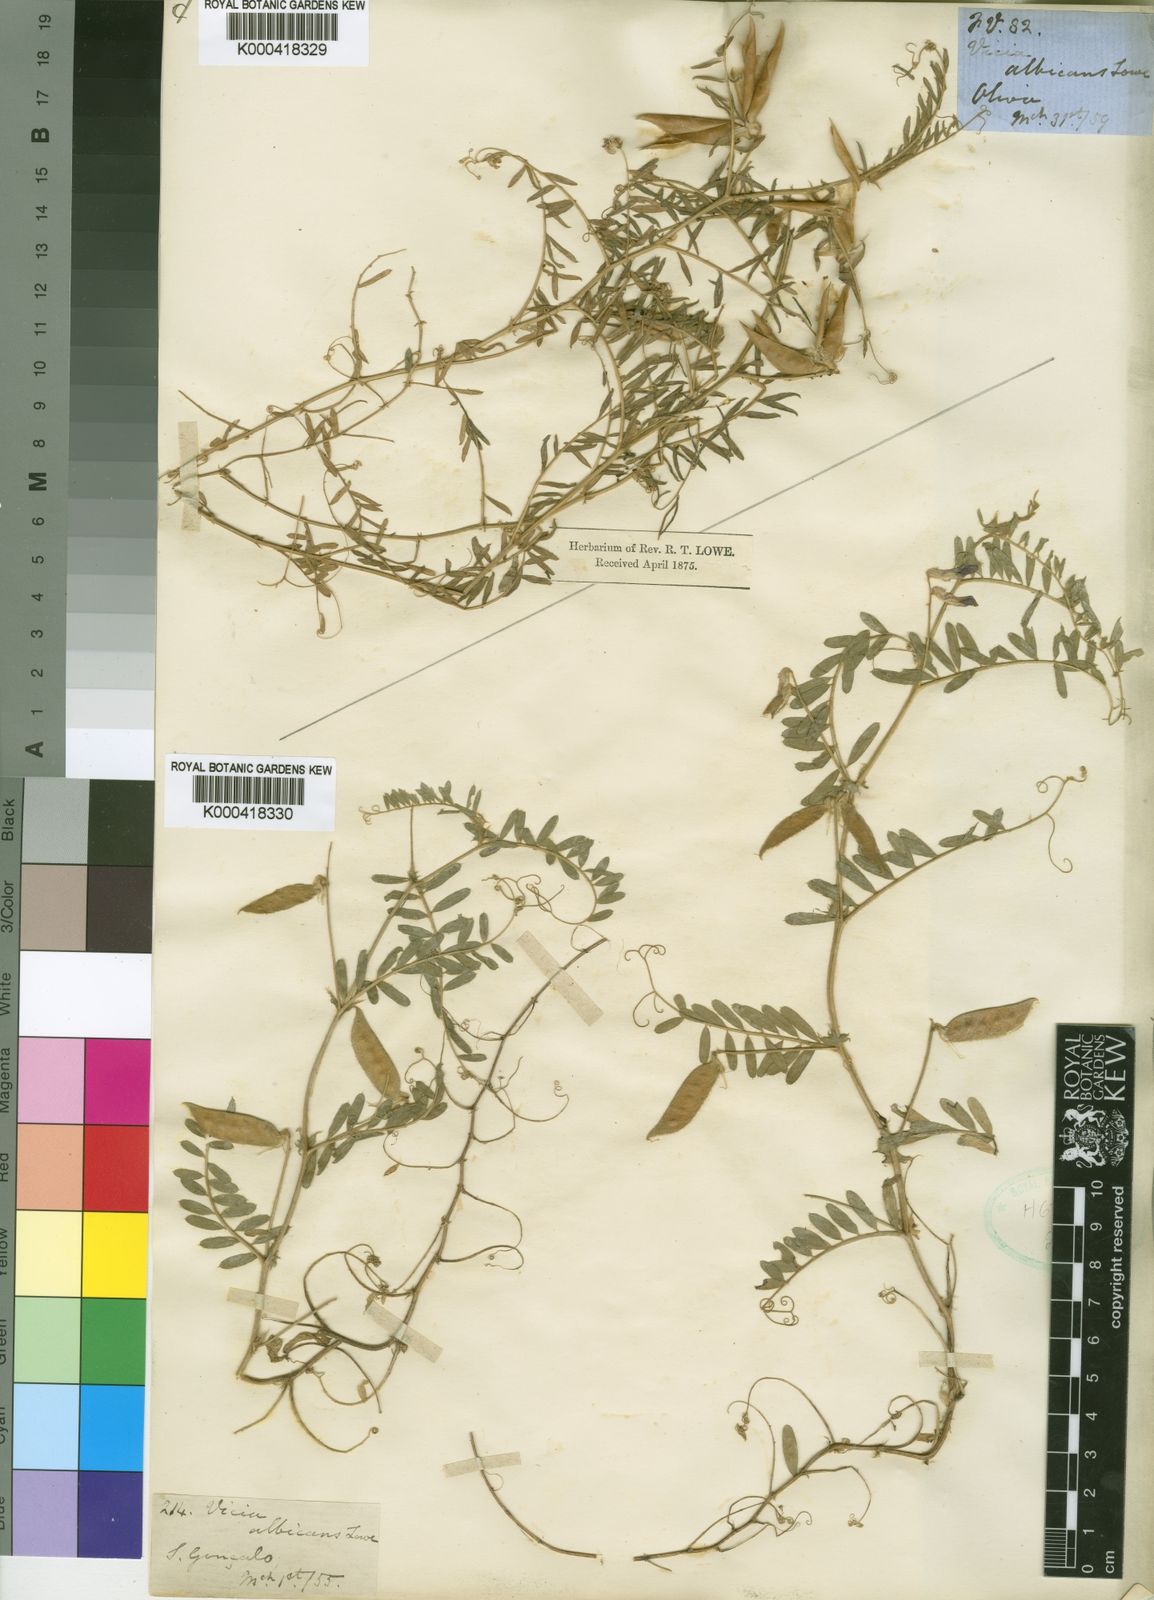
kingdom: Plantae
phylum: Tracheophyta
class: Magnoliopsida
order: Fabales
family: Fabaceae
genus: Vicia
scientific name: Vicia benghalensis
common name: Purple vetch
